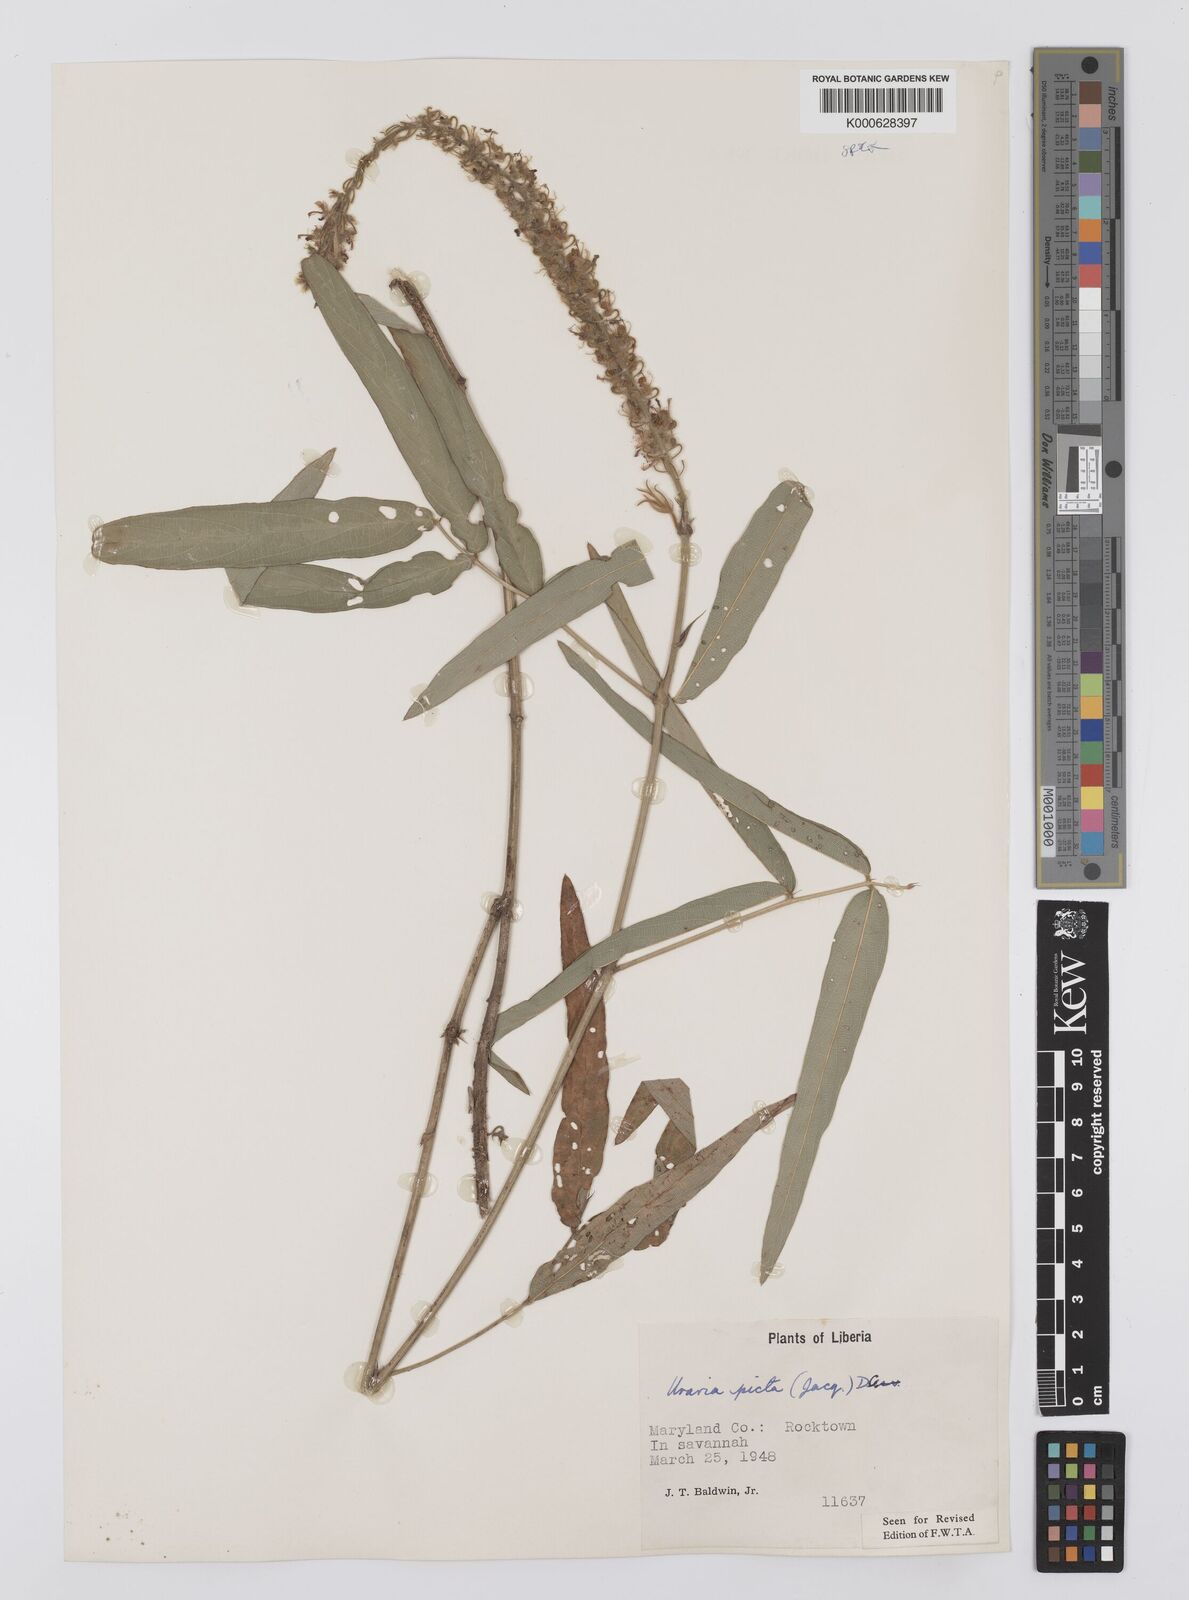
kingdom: Plantae
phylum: Tracheophyta
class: Magnoliopsida
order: Fabales
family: Fabaceae
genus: Uraria
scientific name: Uraria picta
